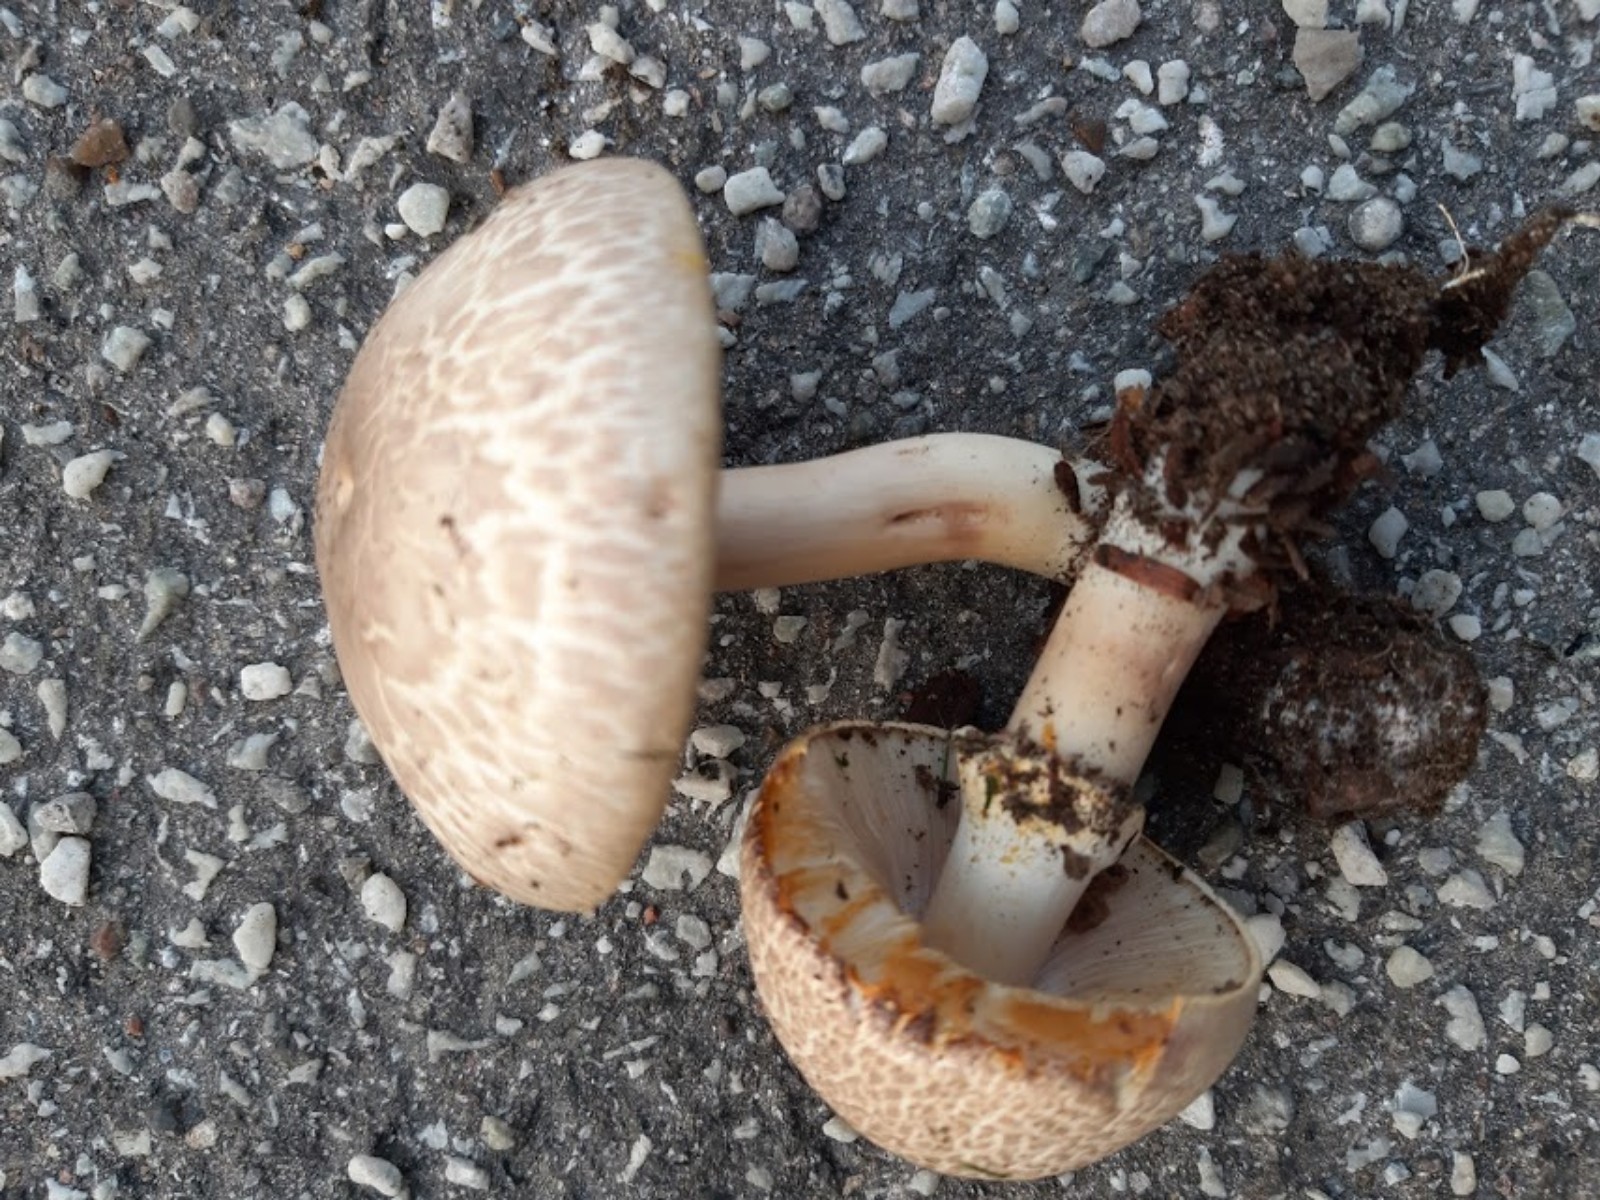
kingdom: Fungi
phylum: Basidiomycota
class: Agaricomycetes
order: Agaricales
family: Agaricaceae
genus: Agaricus
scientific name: Agaricus
